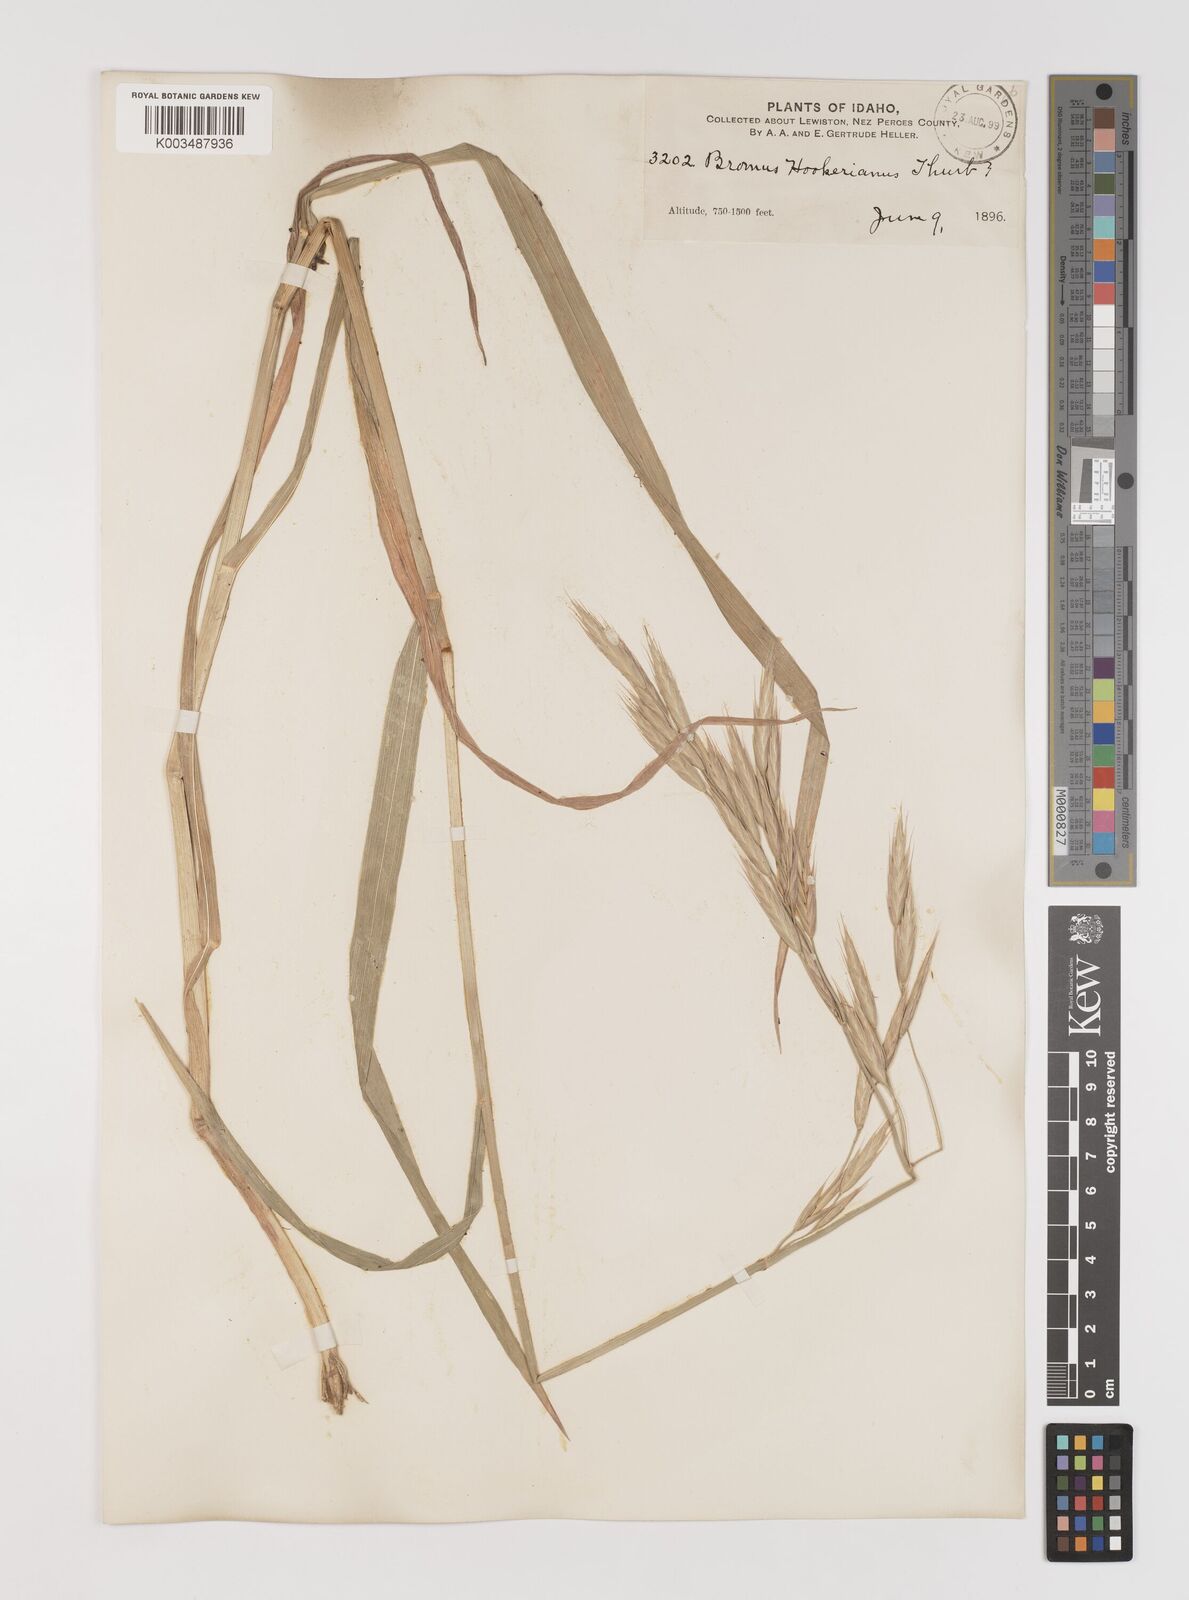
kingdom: Plantae
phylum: Tracheophyta
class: Liliopsida
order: Poales
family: Poaceae
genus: Bromus
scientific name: Bromus carinatus
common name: Mountain brome
